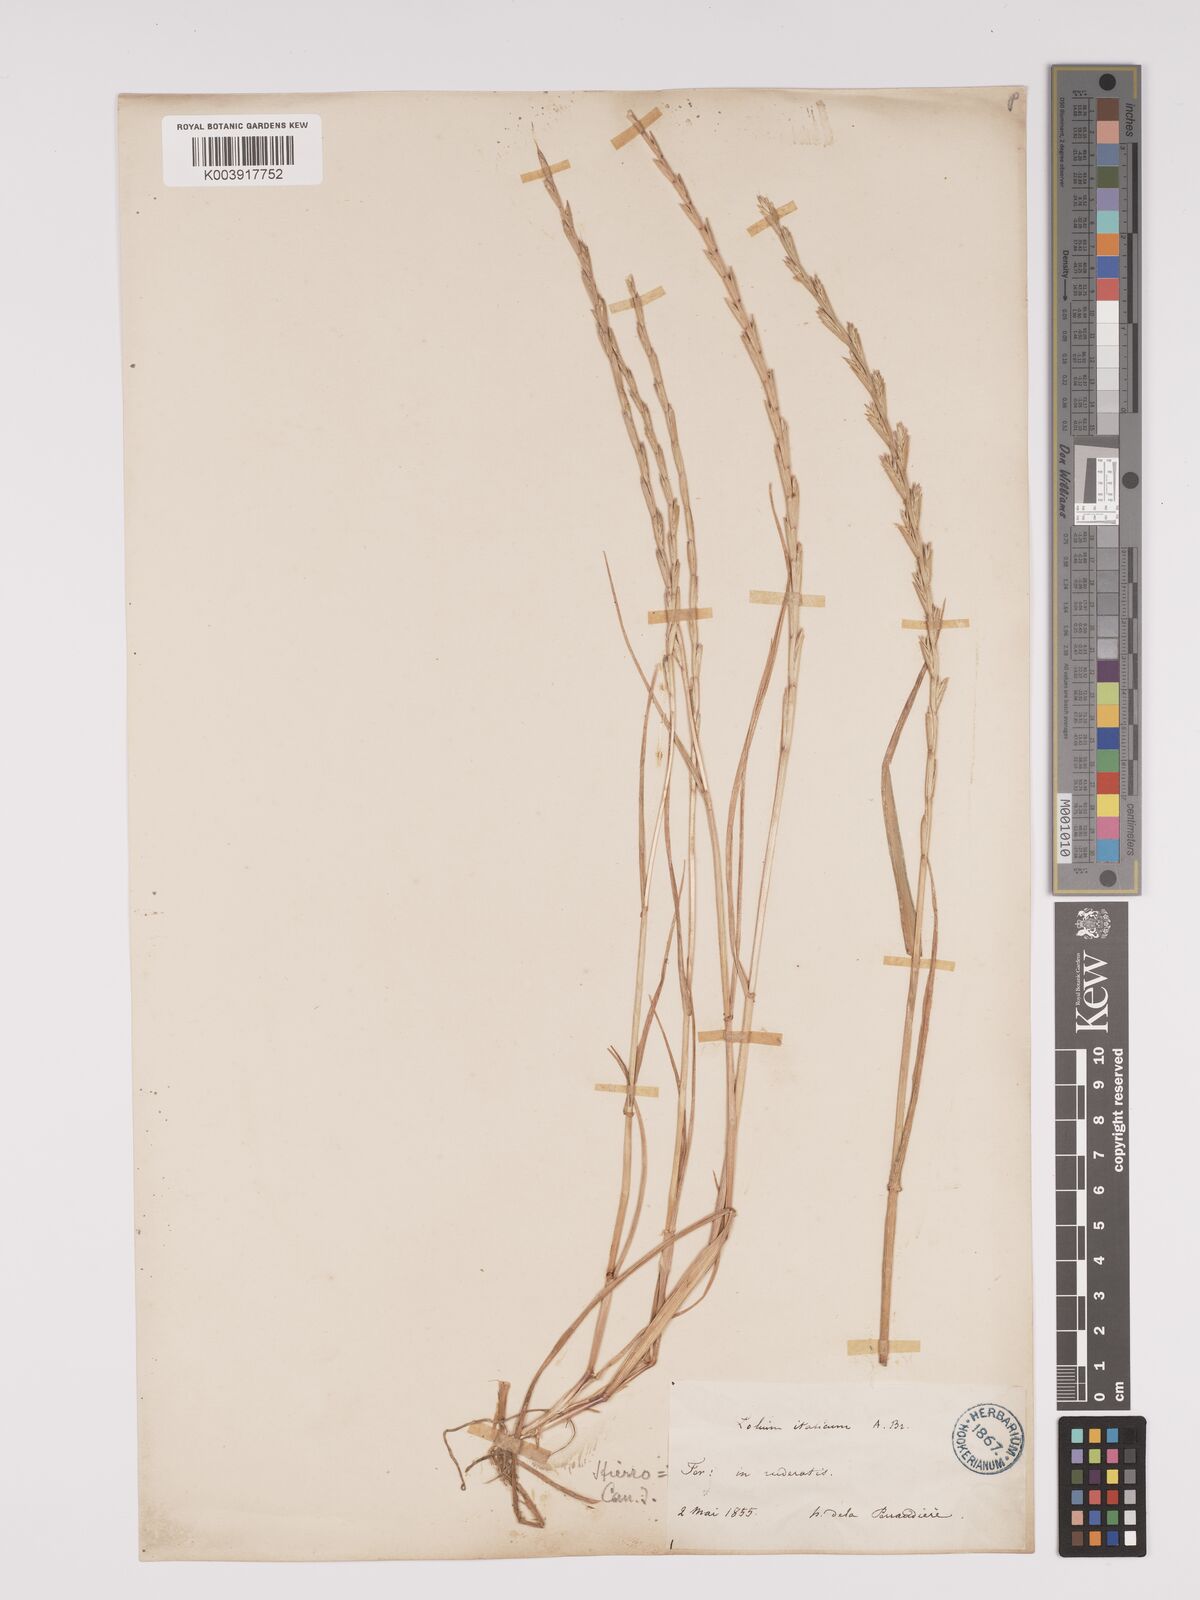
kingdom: Plantae
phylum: Tracheophyta
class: Liliopsida
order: Poales
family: Poaceae
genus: Lolium
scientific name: Lolium rigidum
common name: Wimmera ryegrass
